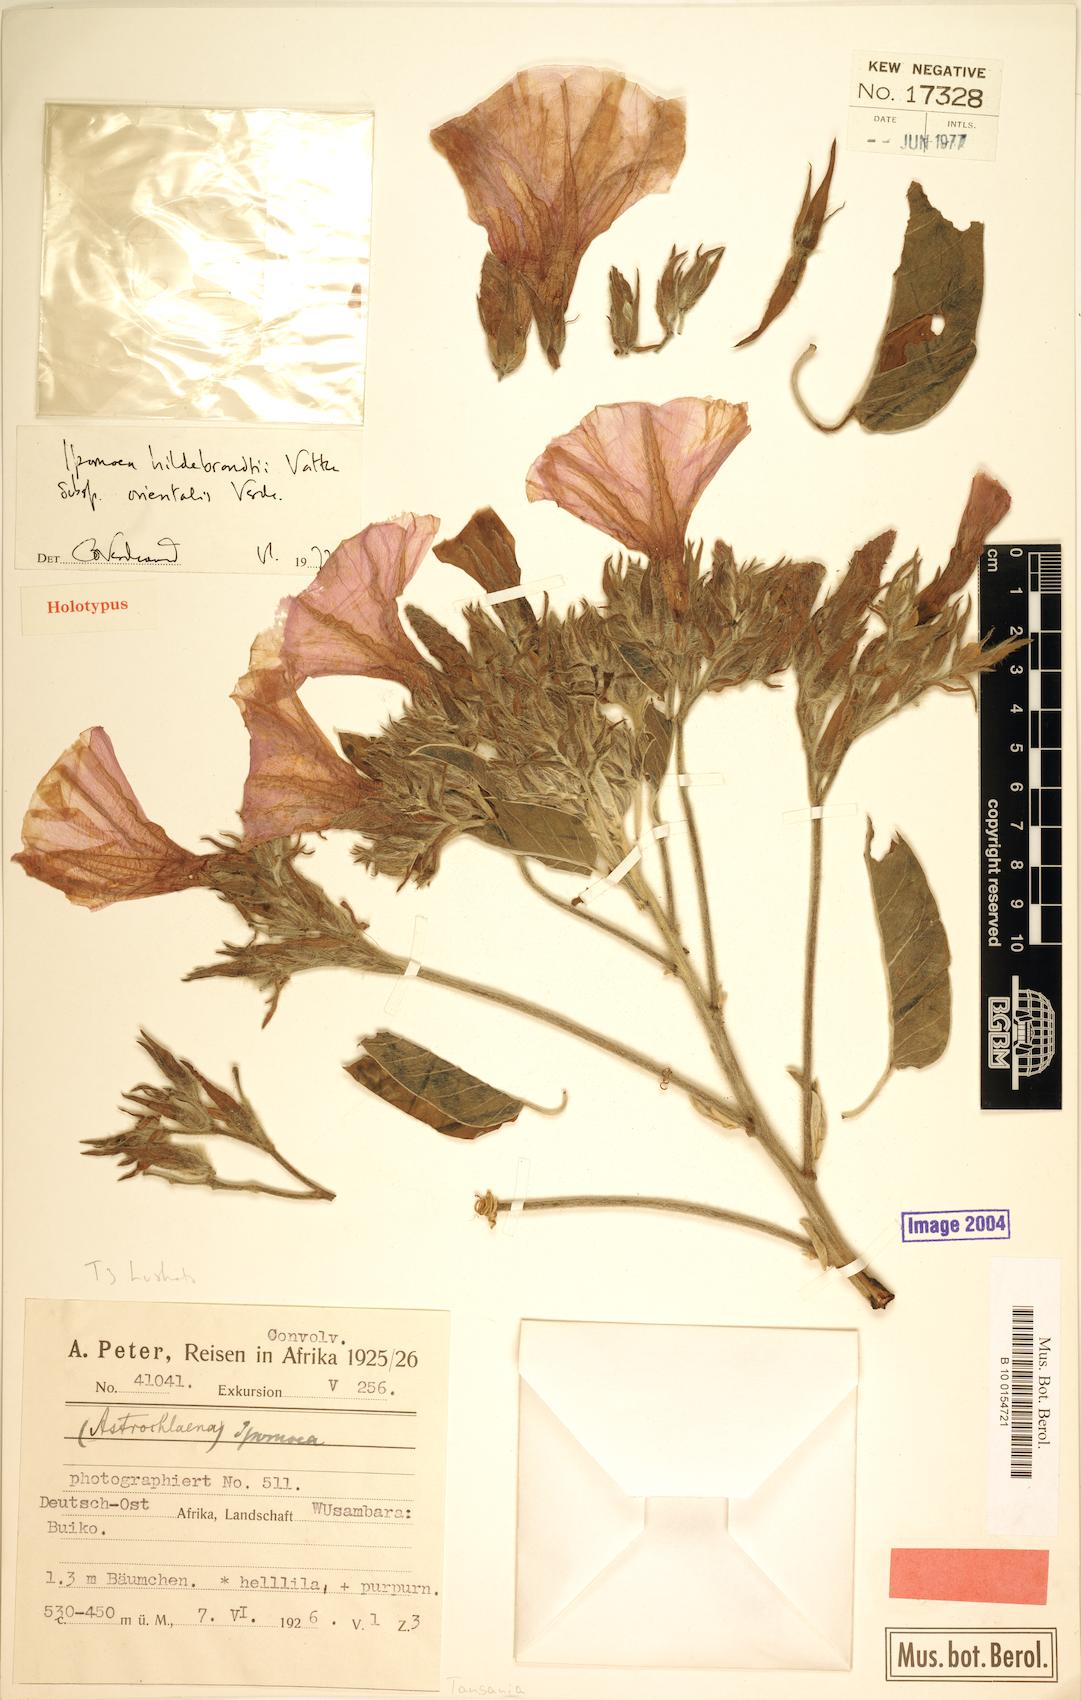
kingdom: Plantae
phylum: Tracheophyta
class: Magnoliopsida
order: Solanales
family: Convolvulaceae
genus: Ipomoea
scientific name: Ipomoea hildebrandtii
